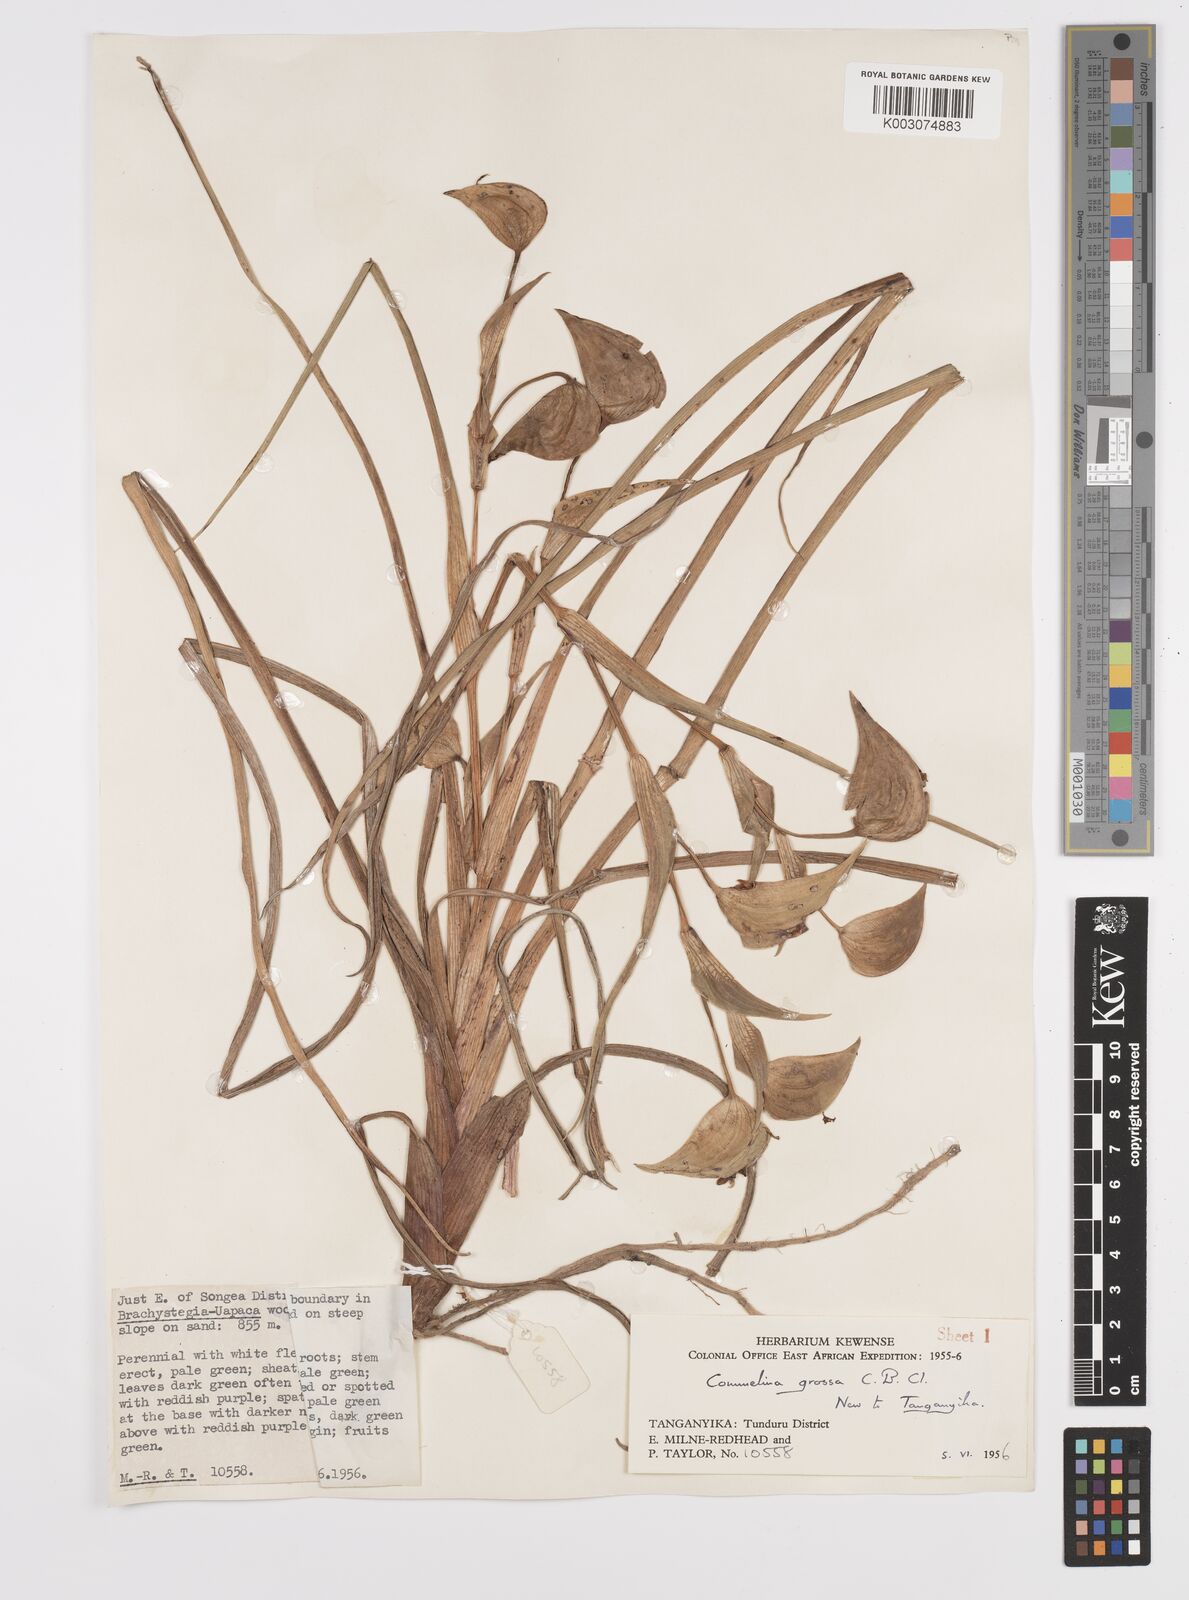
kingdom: Plantae
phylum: Tracheophyta
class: Liliopsida
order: Commelinales
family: Commelinaceae
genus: Commelina
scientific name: Commelina grossa
